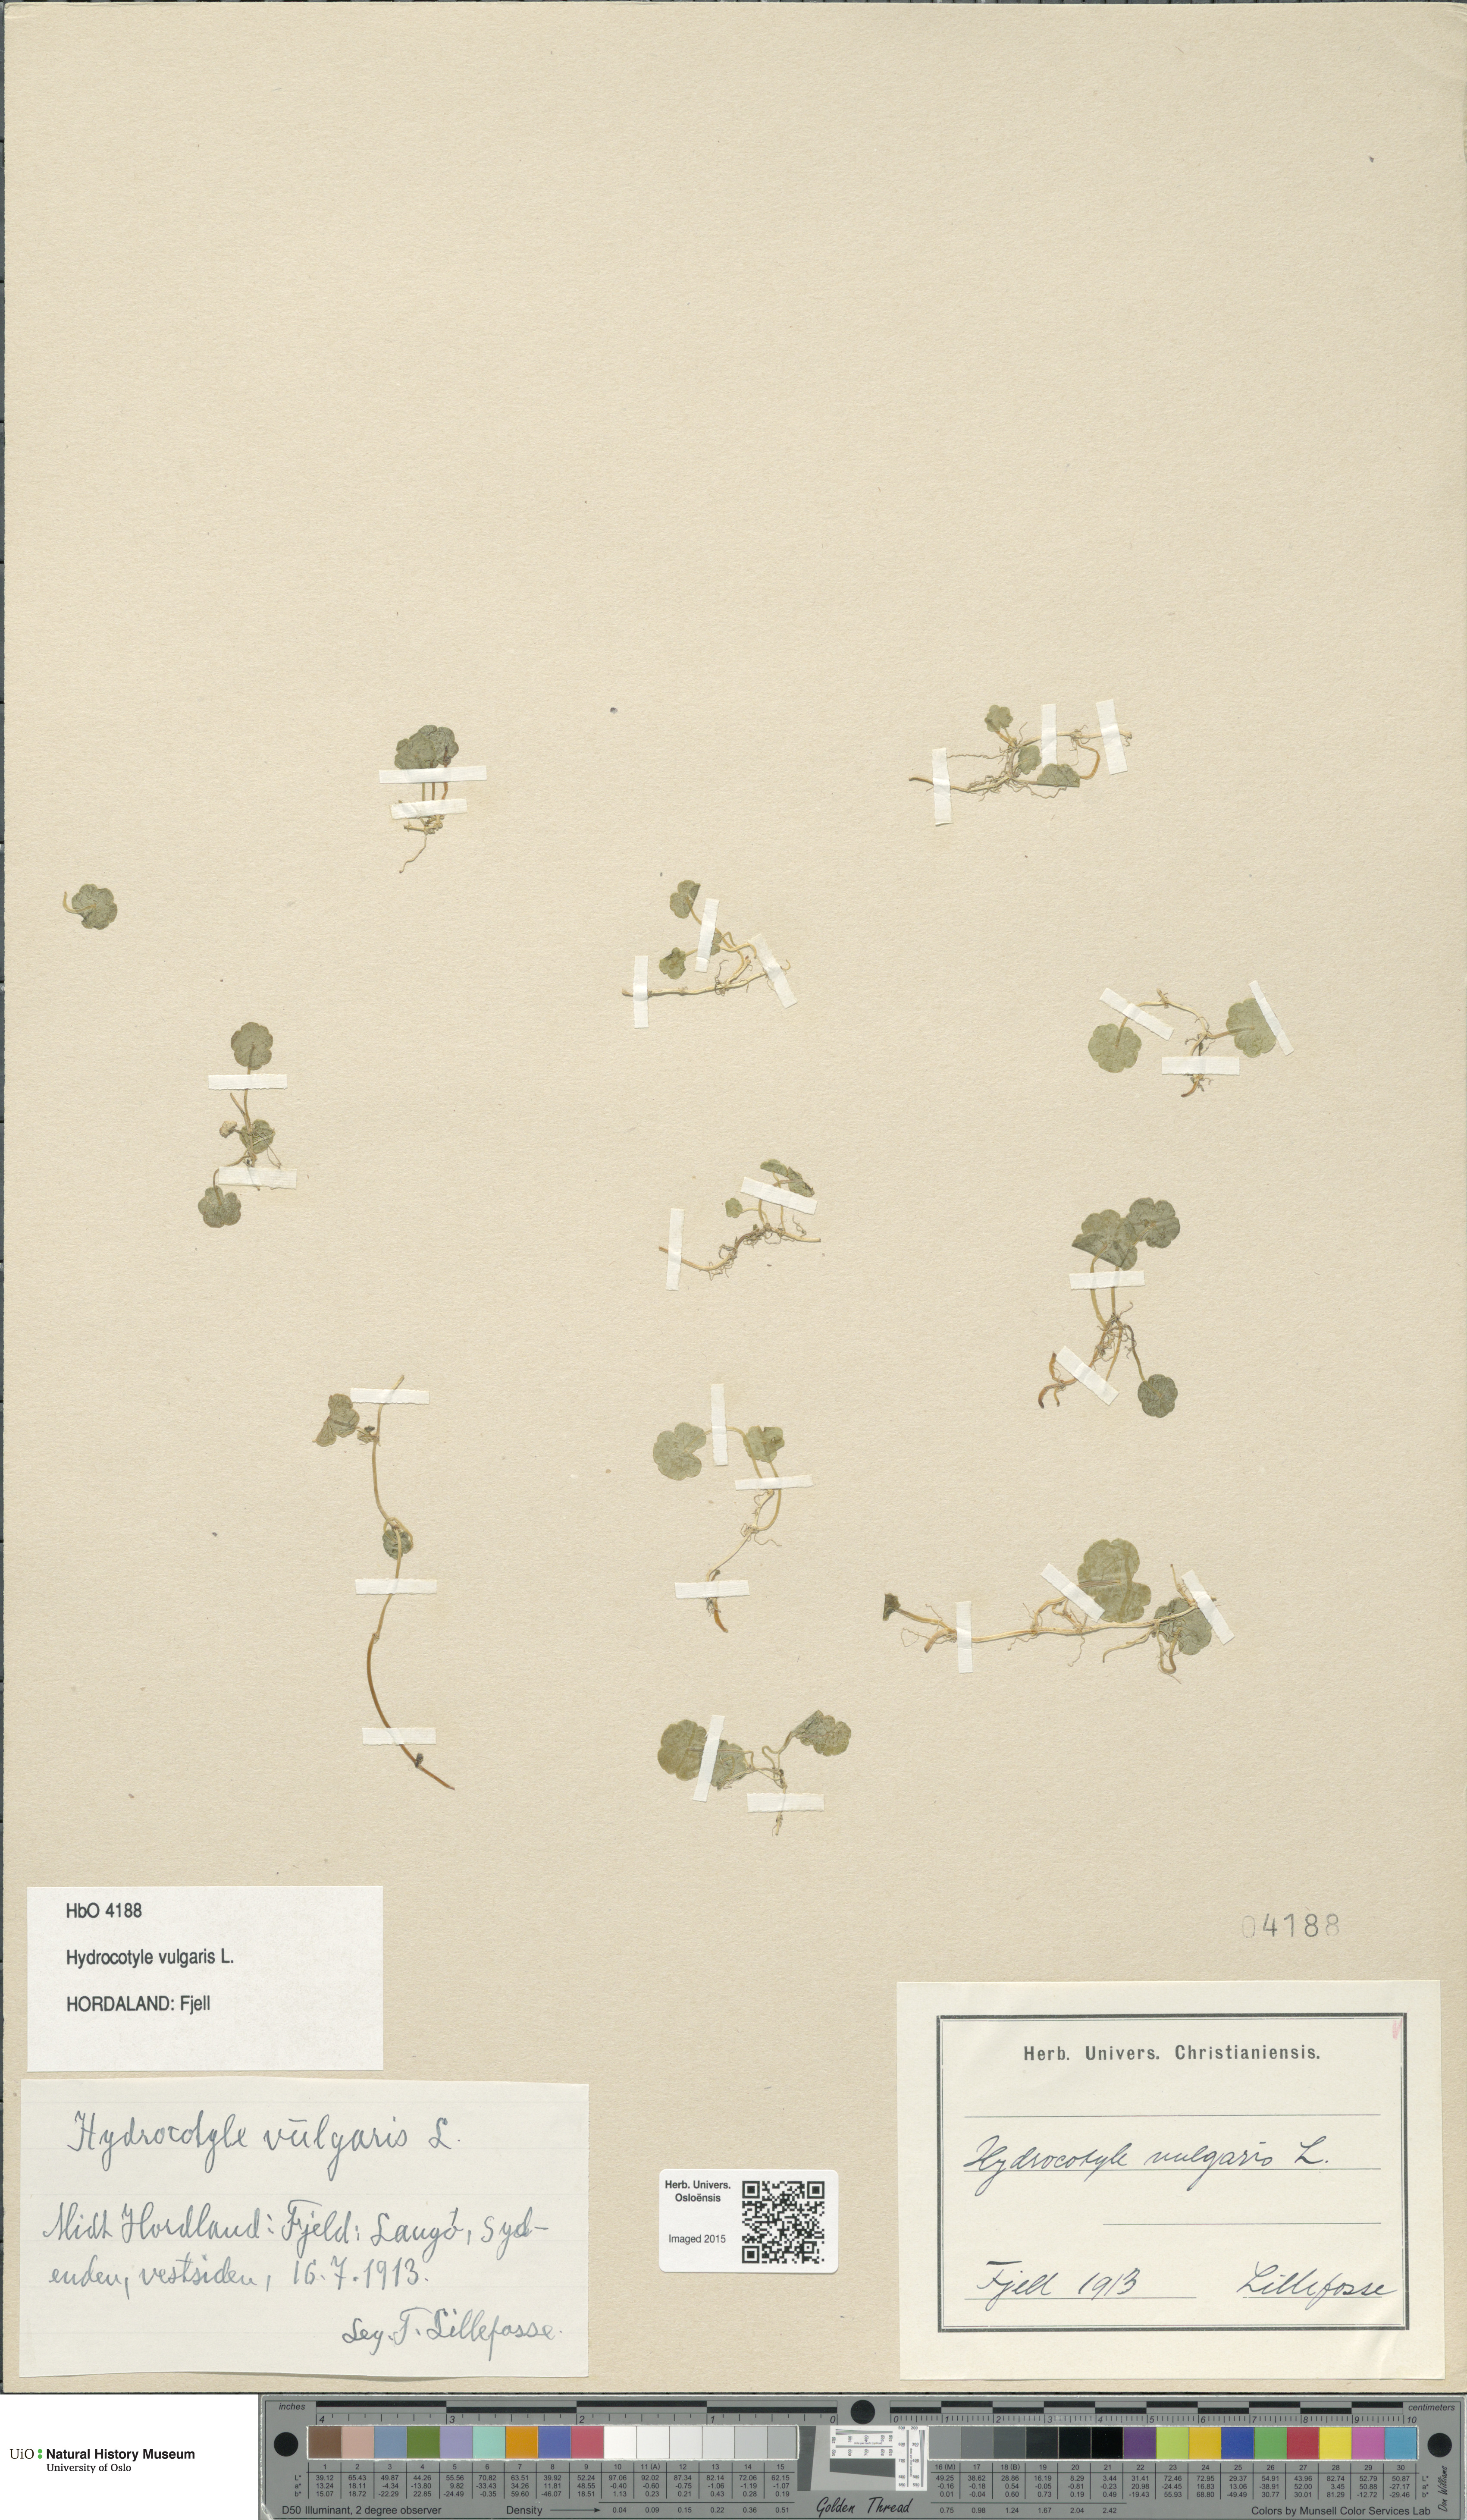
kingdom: Plantae
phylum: Tracheophyta
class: Magnoliopsida
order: Apiales
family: Araliaceae
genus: Hydrocotyle
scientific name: Hydrocotyle vulgaris
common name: Marsh pennywort
